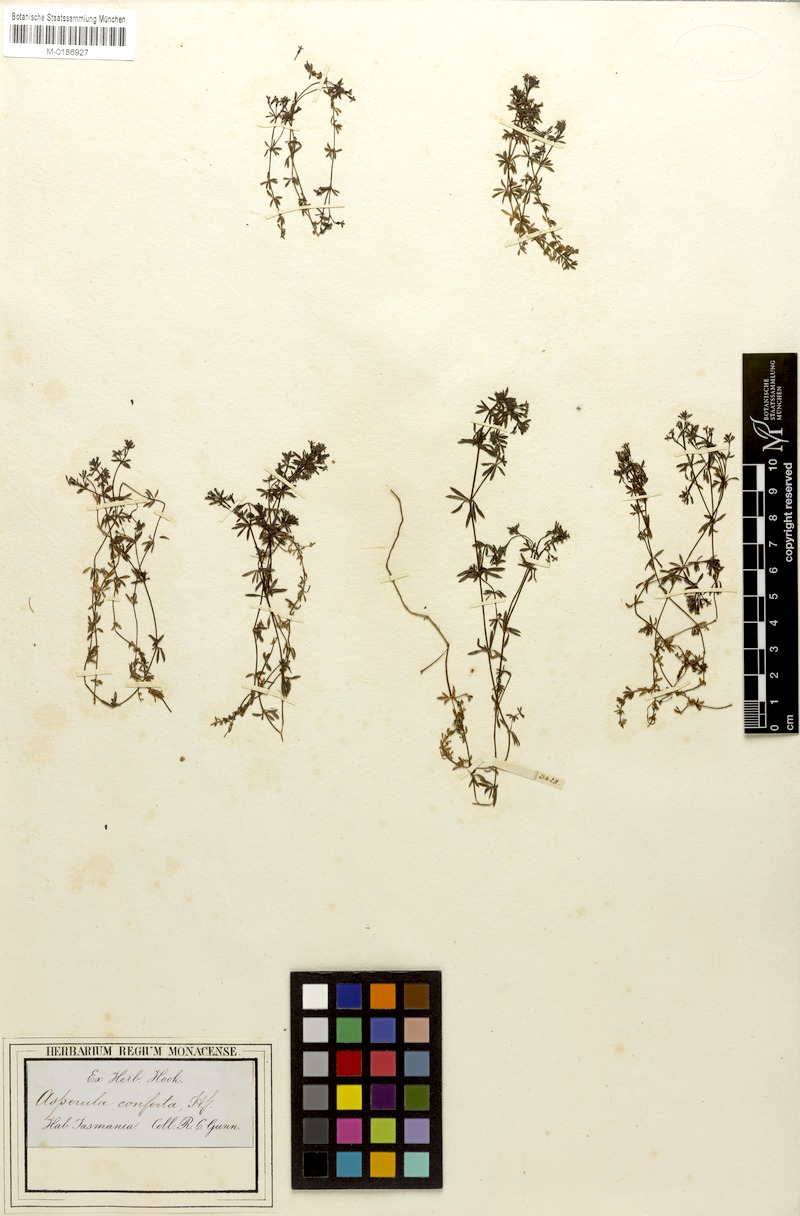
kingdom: Plantae
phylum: Tracheophyta
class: Magnoliopsida
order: Gentianales
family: Rubiaceae
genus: Asperula
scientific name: Asperula conferta
